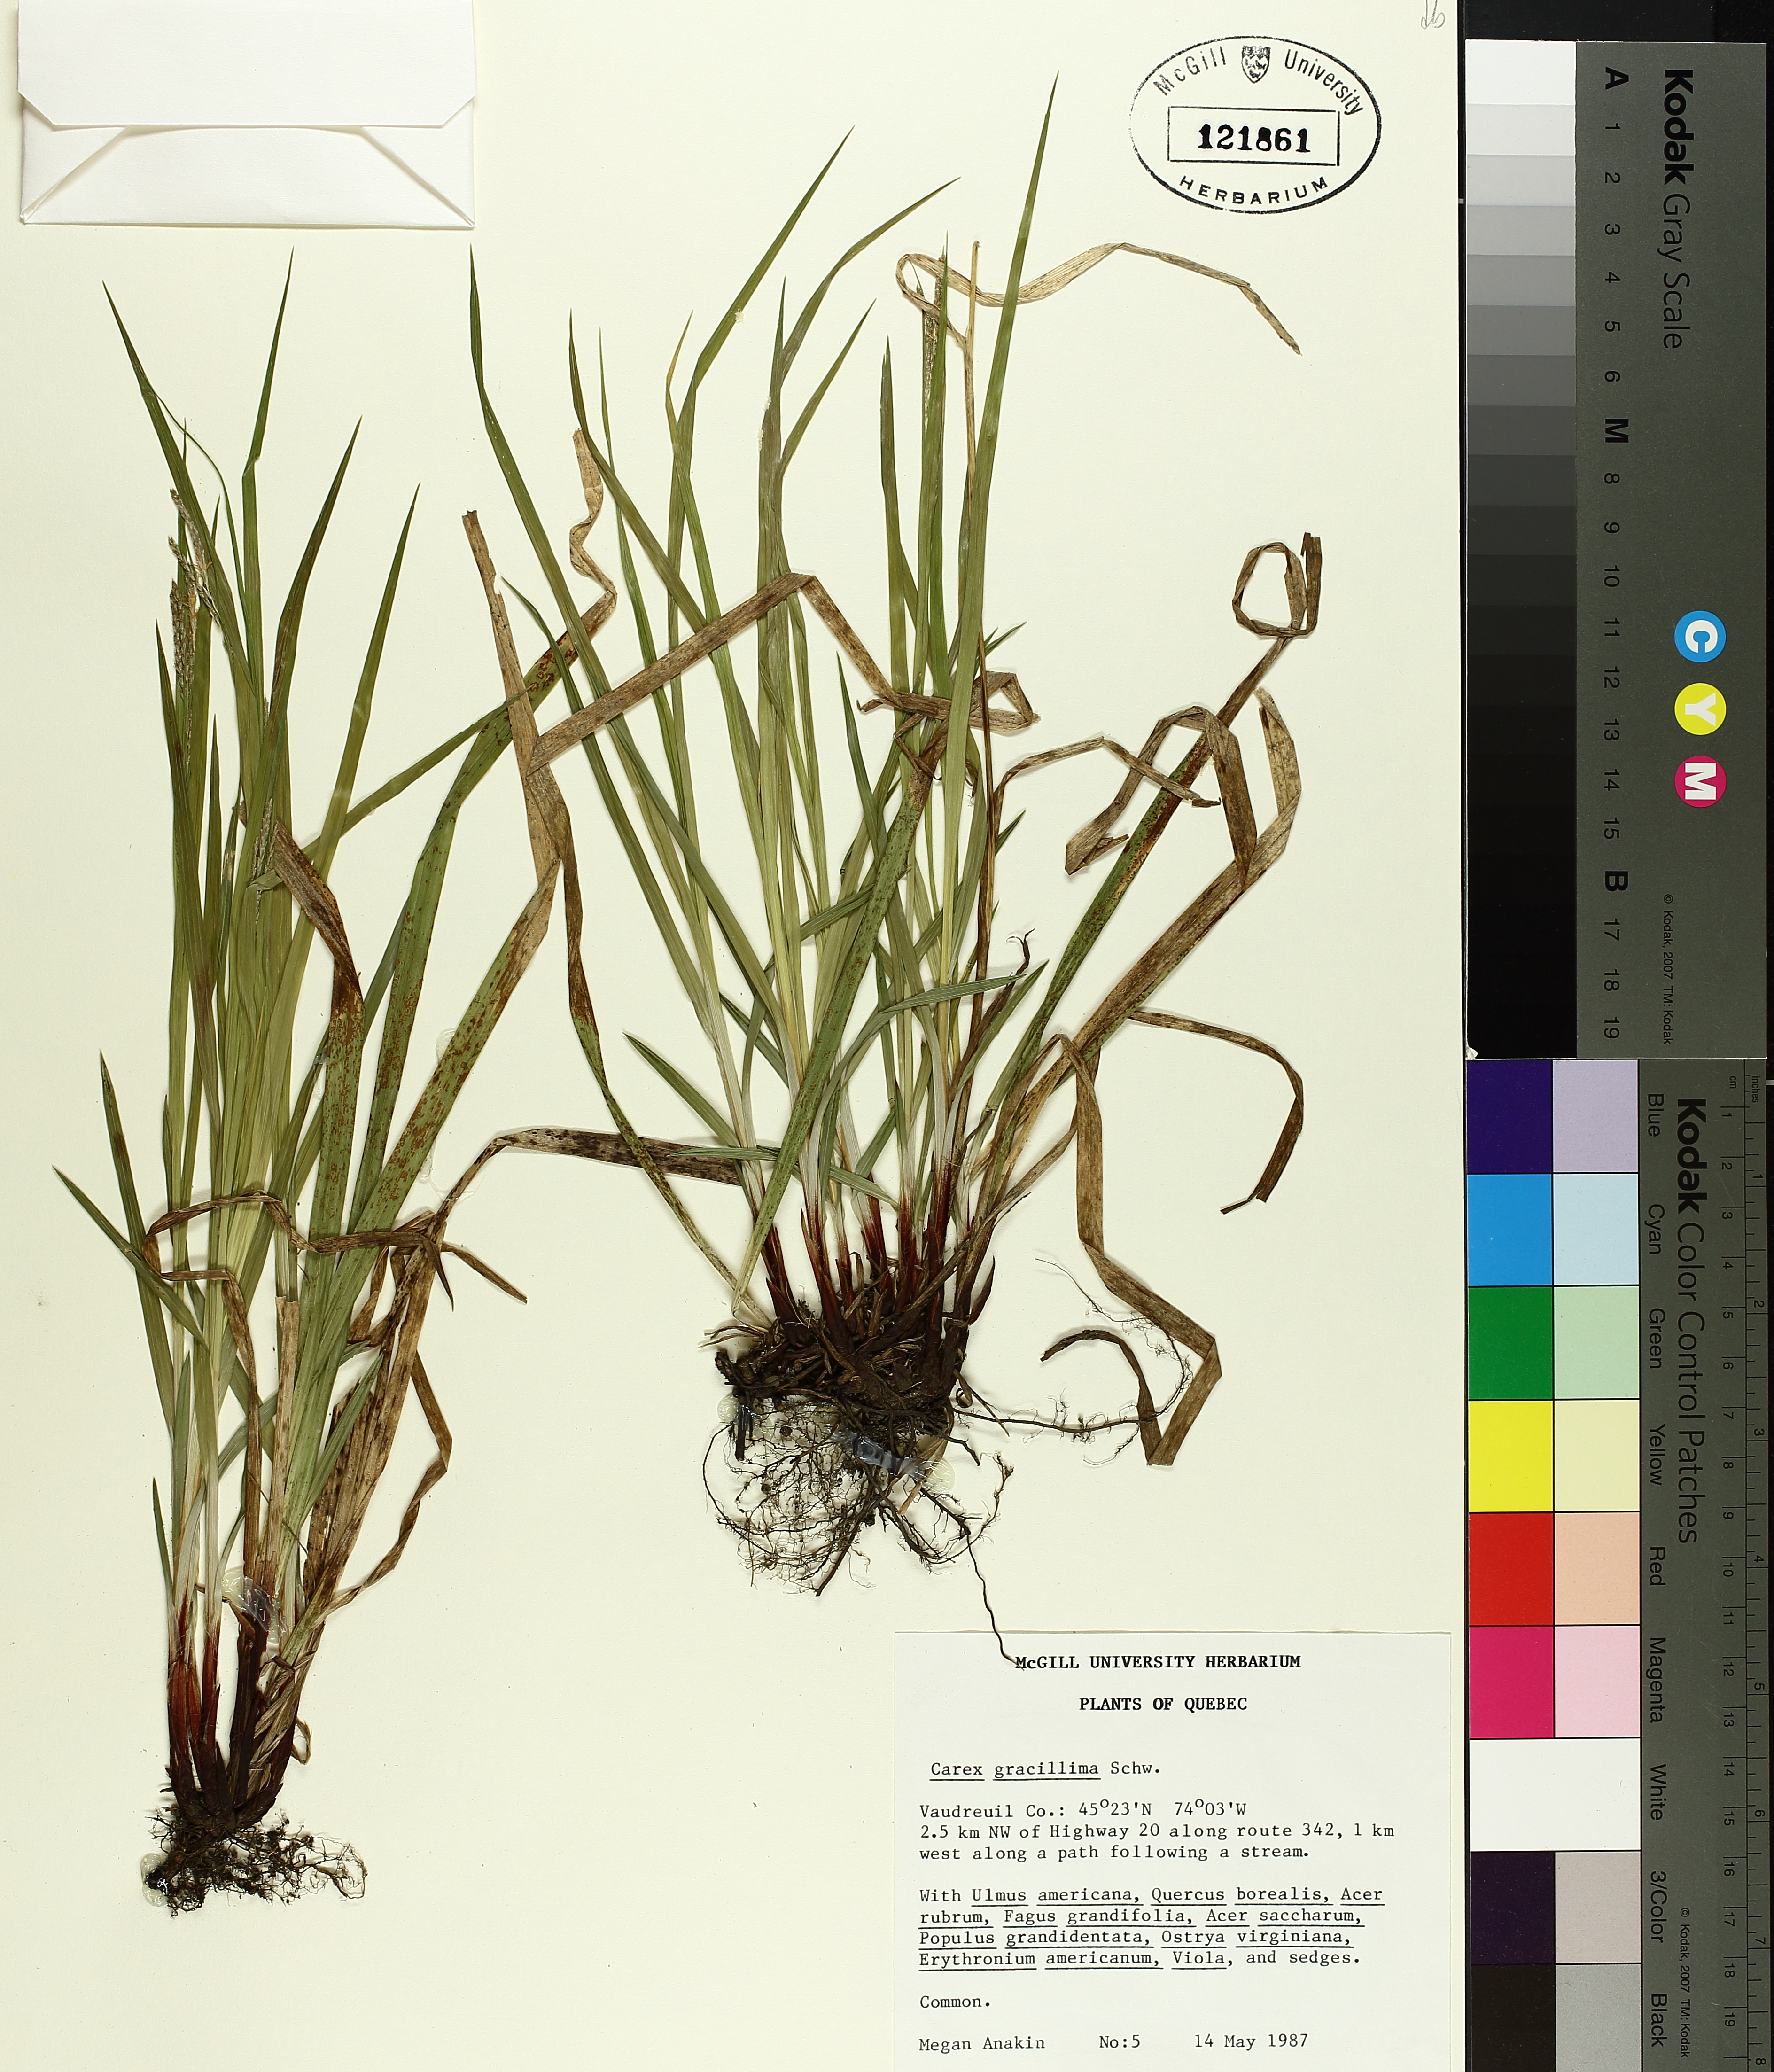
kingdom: Plantae
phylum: Tracheophyta
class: Liliopsida
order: Poales
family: Cyperaceae
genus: Carex
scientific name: Carex gracillima
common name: Graceful sedge
